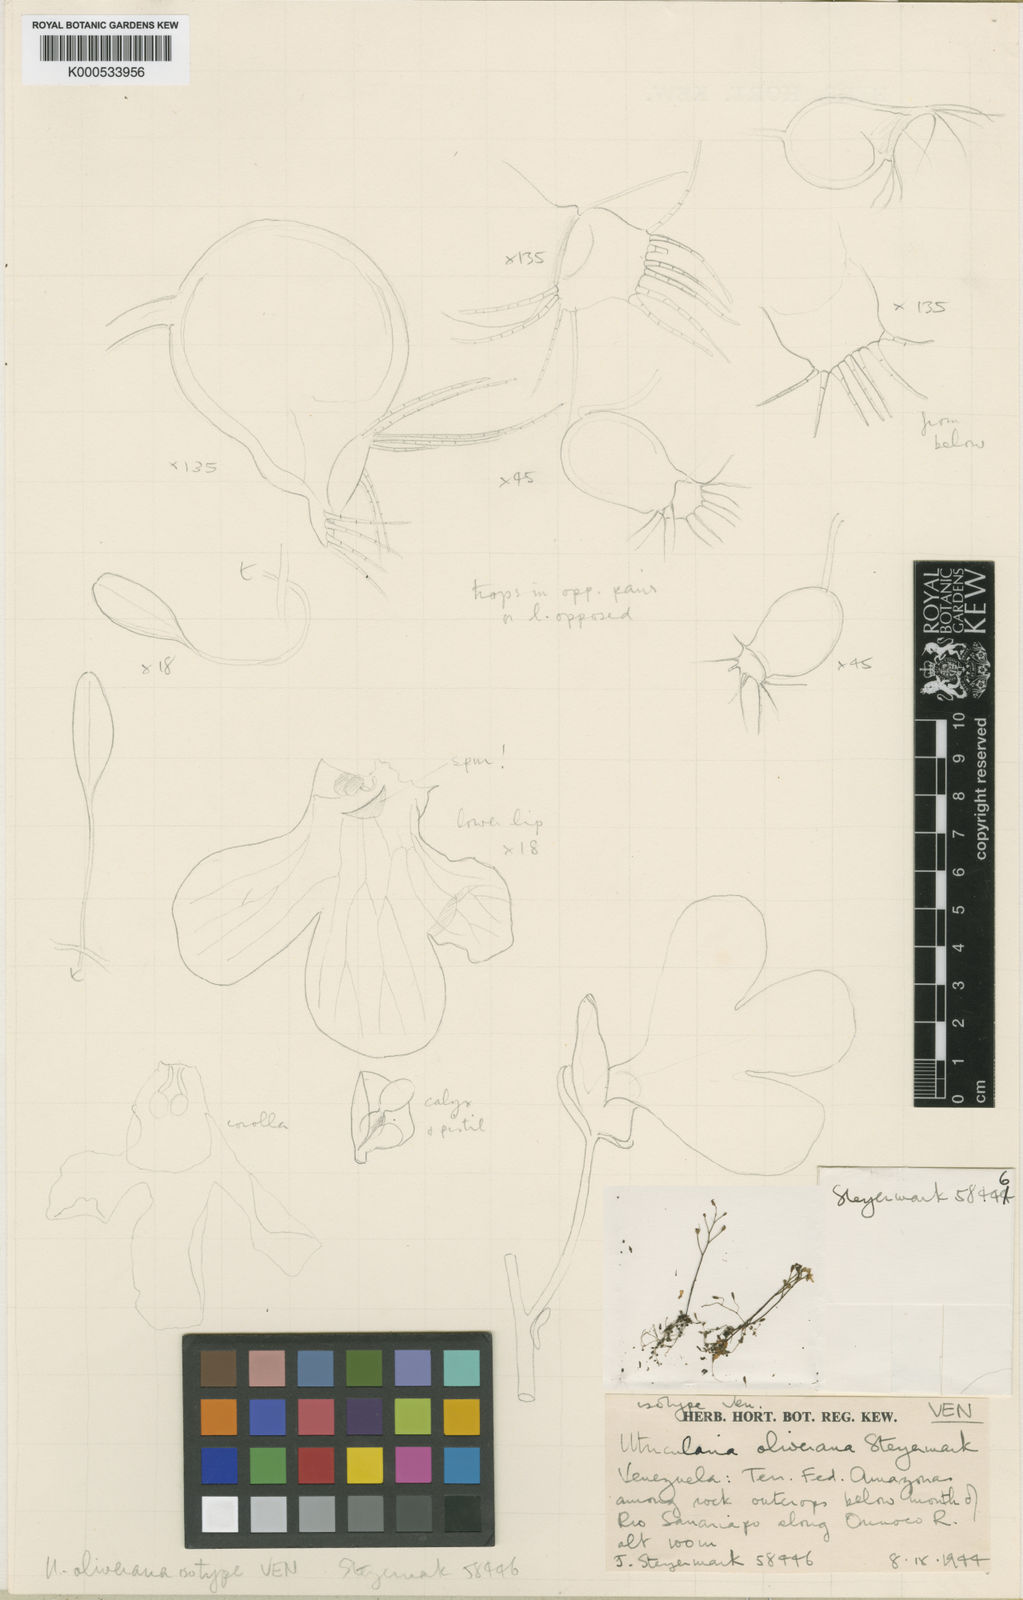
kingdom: Plantae
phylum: Tracheophyta
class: Magnoliopsida
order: Lamiales
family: Lentibulariaceae
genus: Utricularia
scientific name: Utricularia oliveriana
